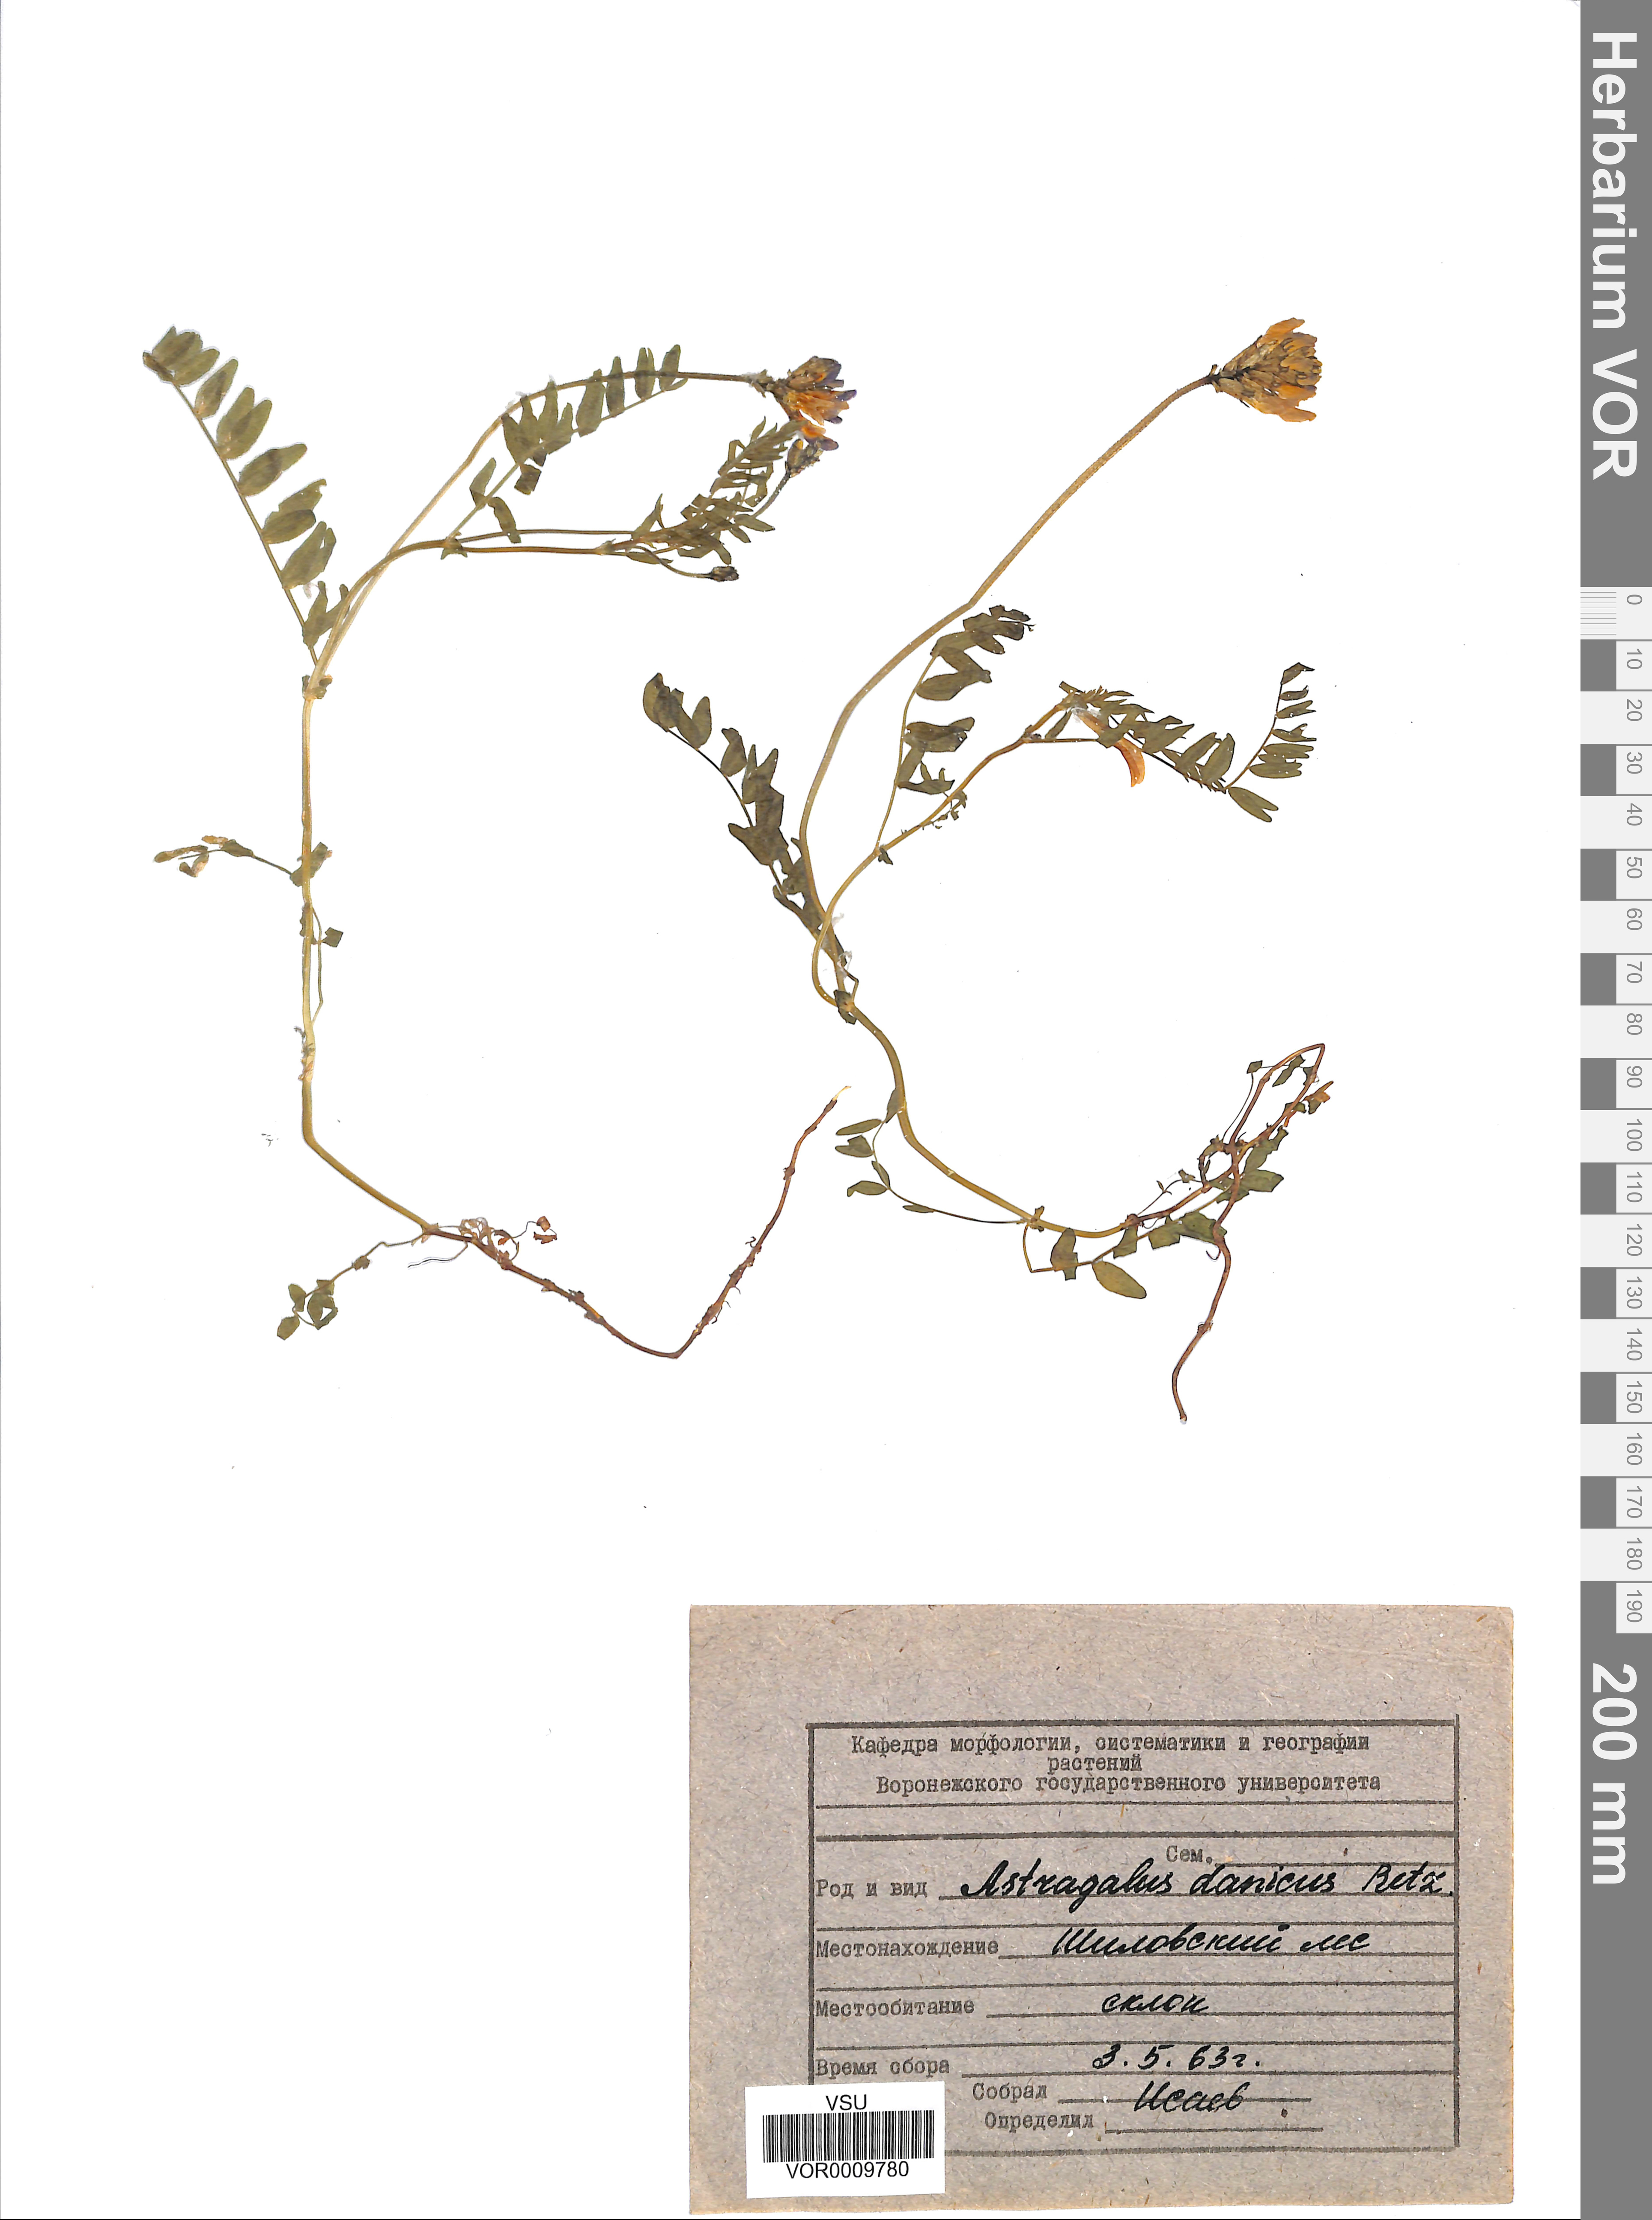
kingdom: Plantae
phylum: Tracheophyta
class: Magnoliopsida
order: Fabales
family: Fabaceae
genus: Astragalus
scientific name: Astragalus danicus
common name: Purple milk-vetch
